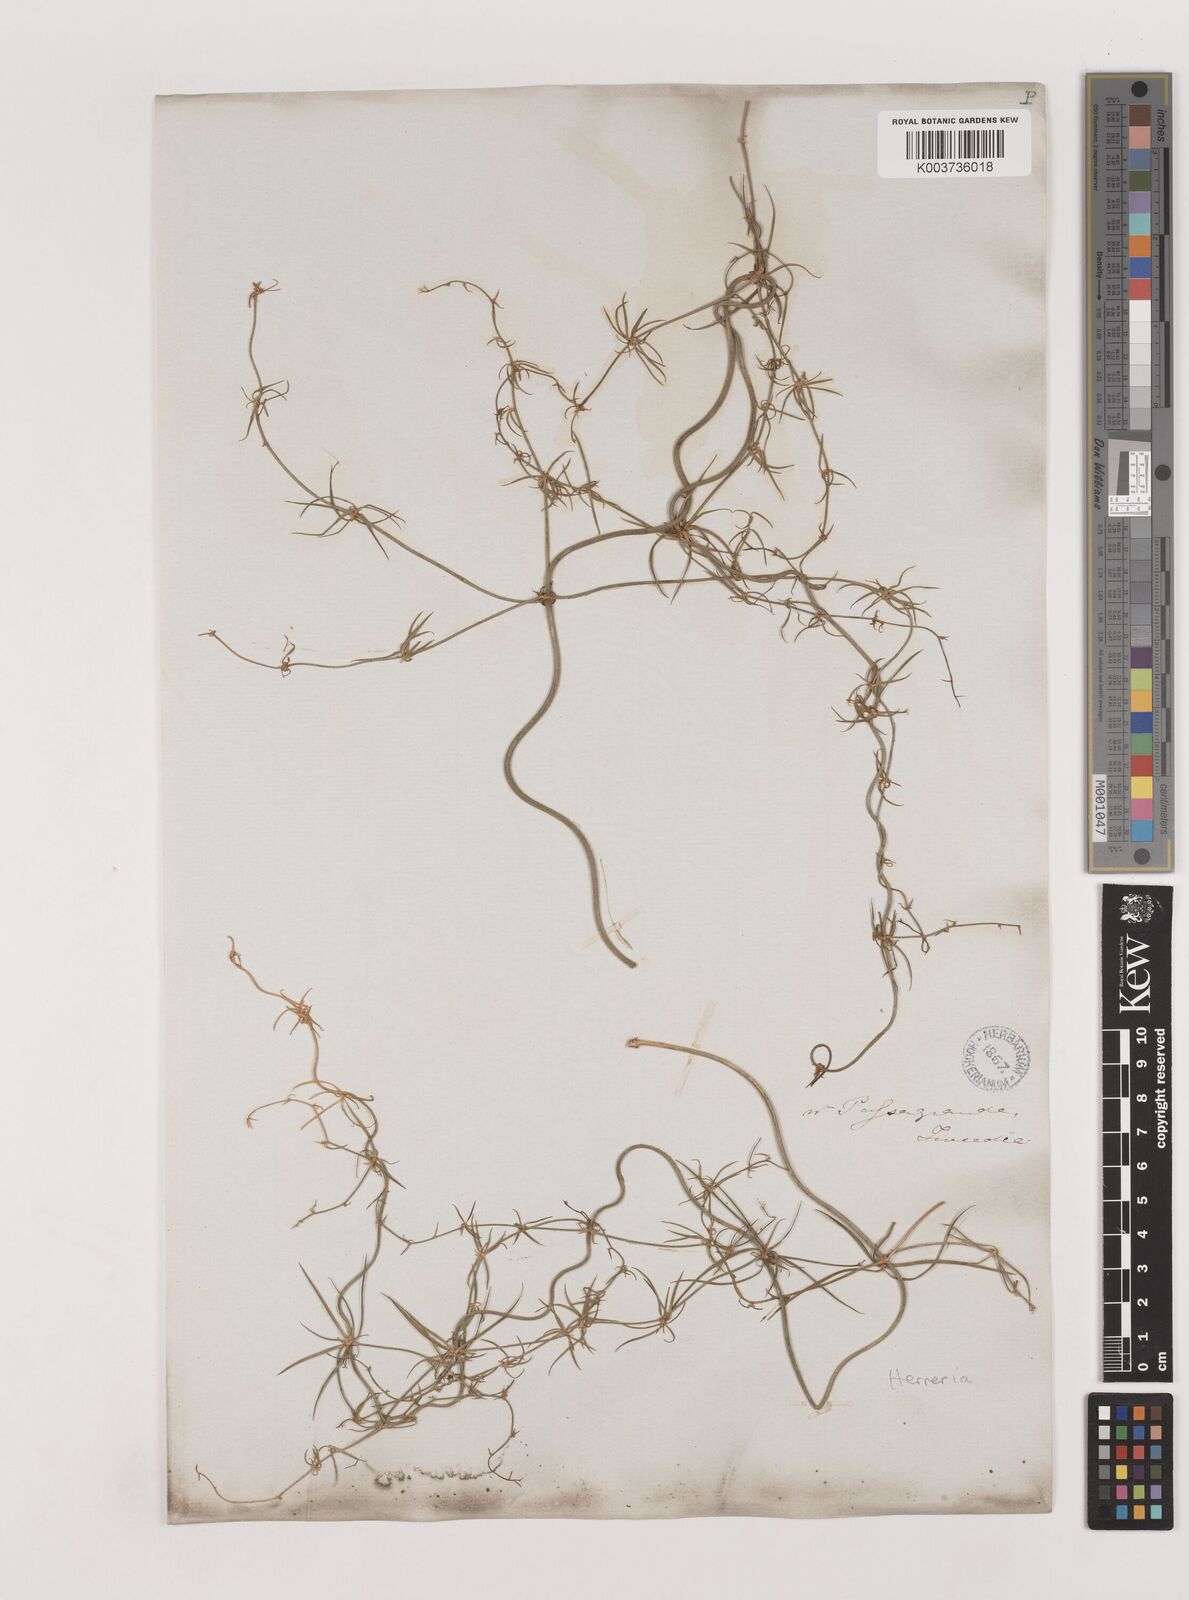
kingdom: Plantae
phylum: Tracheophyta
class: Liliopsida
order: Asparagales
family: Asparagaceae
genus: Herreria
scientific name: Herreria
